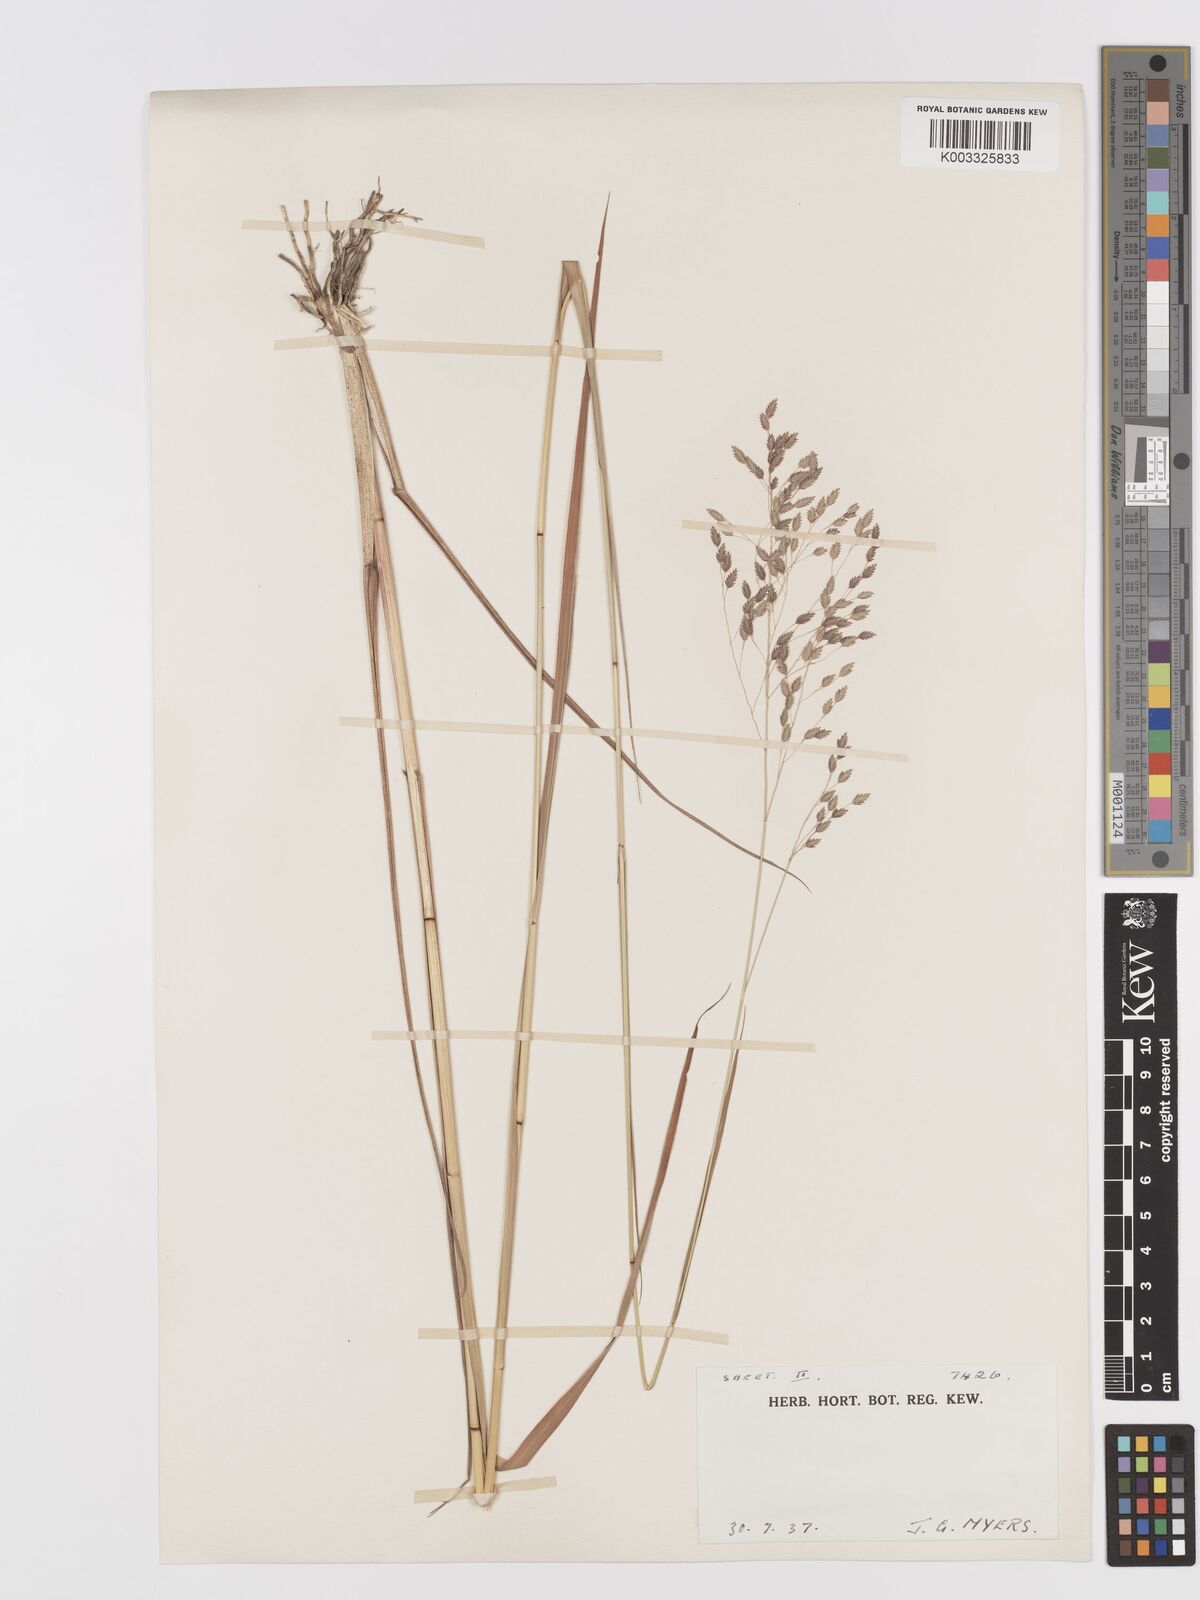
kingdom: Plantae
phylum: Tracheophyta
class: Liliopsida
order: Poales
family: Poaceae
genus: Eragrostis
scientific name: Eragrostis atrovirens
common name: Thalia lovegrass
